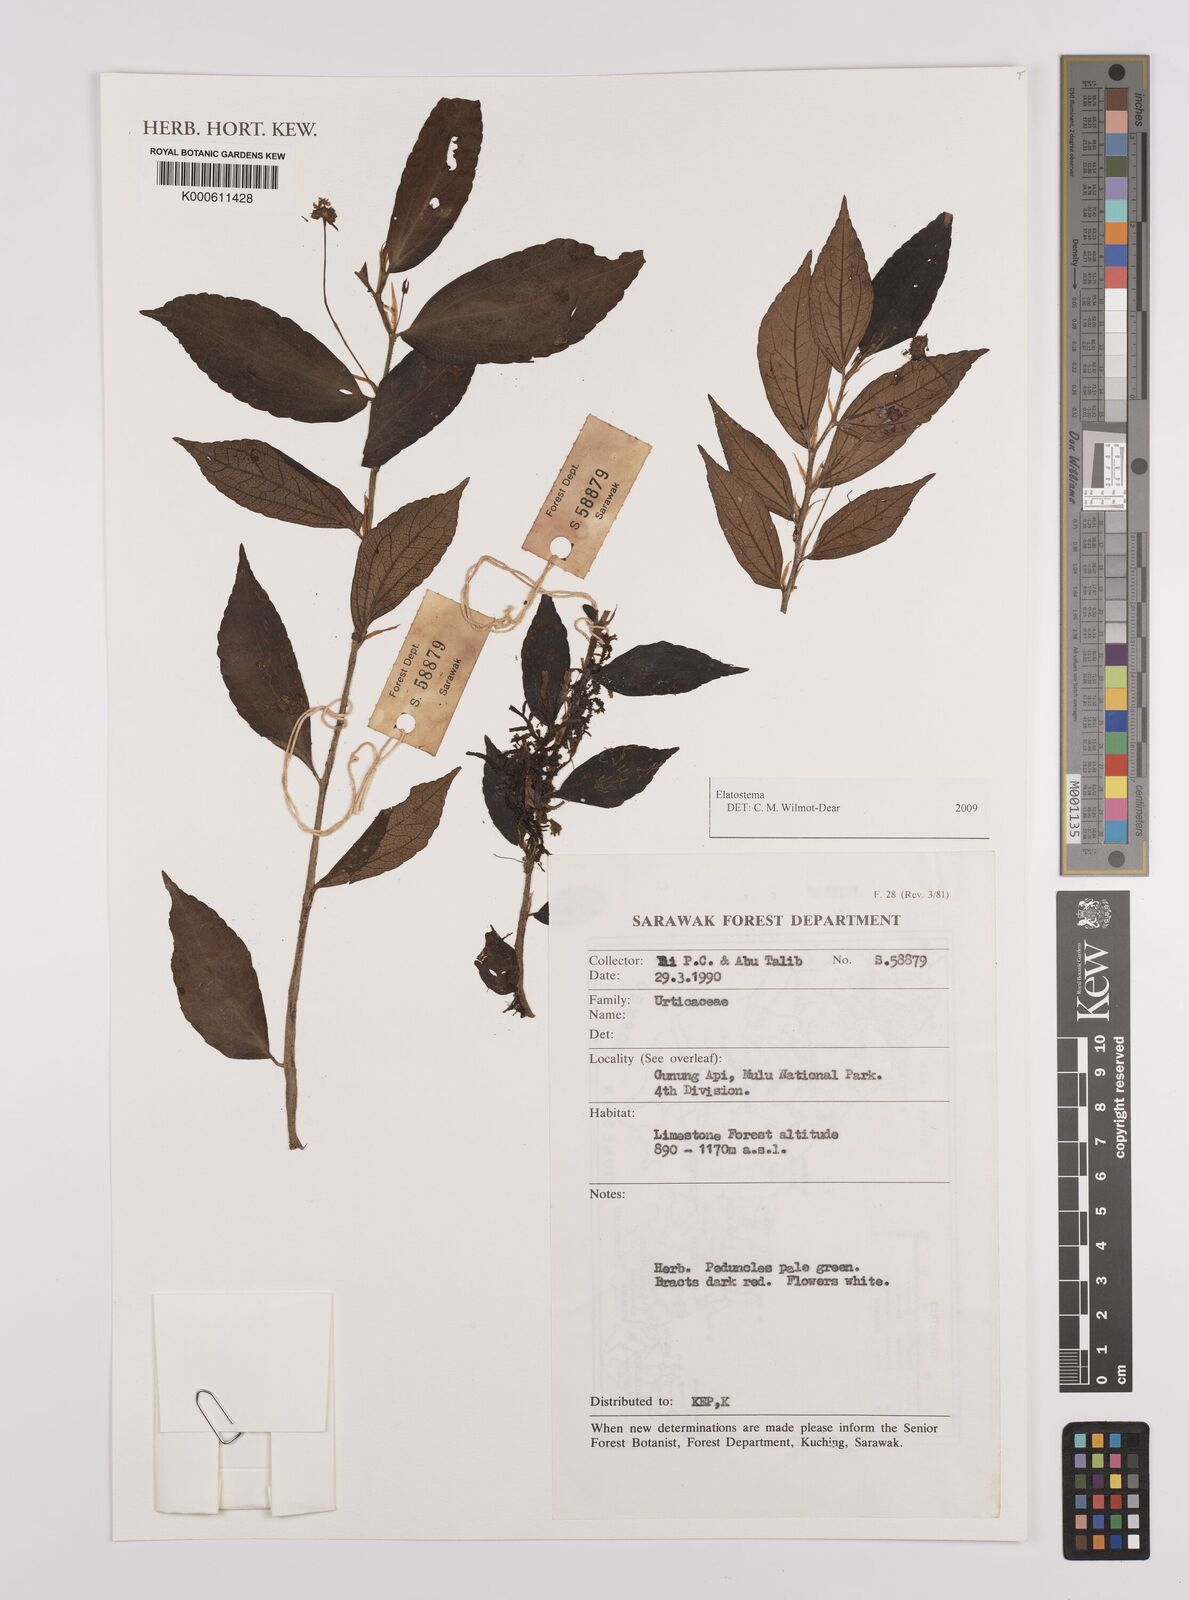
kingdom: Plantae
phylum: Tracheophyta
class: Magnoliopsida
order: Rosales
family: Urticaceae
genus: Elatostema
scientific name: Elatostema
